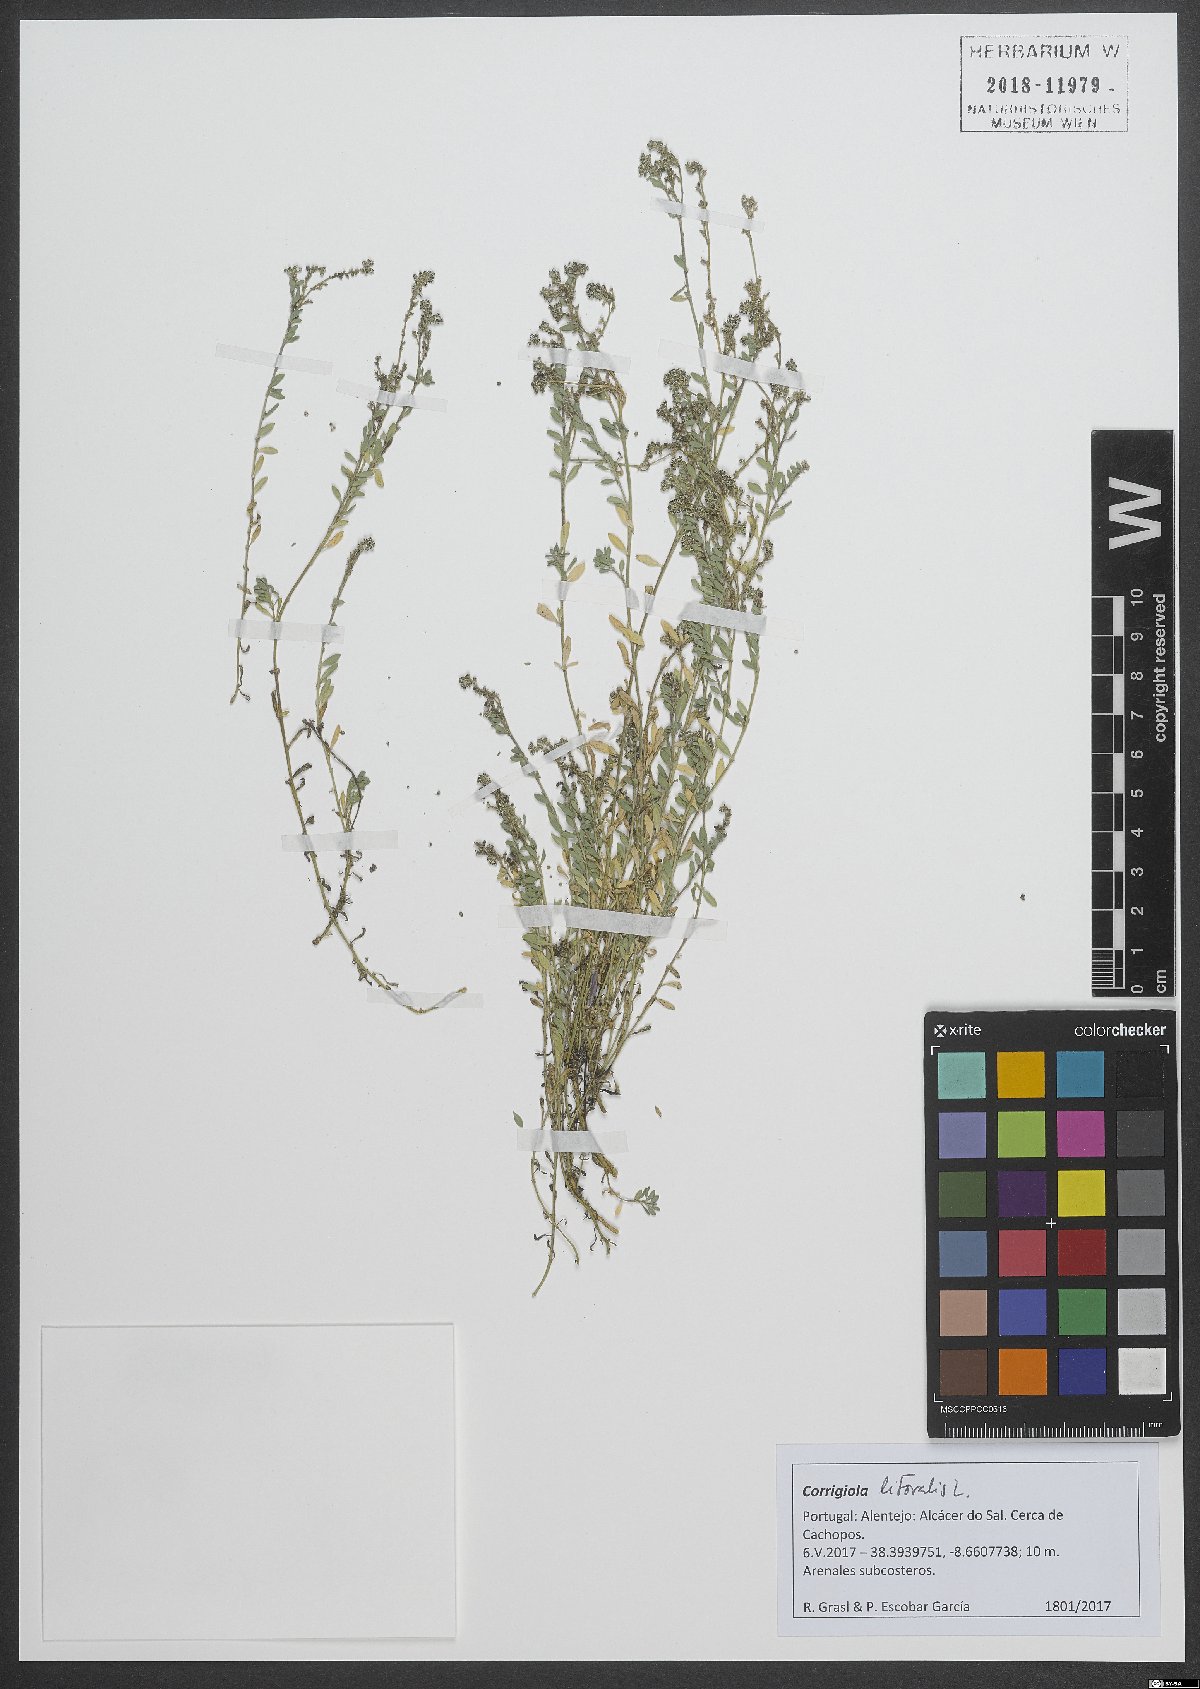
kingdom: Plantae
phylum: Tracheophyta
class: Magnoliopsida
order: Caryophyllales
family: Caryophyllaceae
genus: Corrigiola
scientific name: Corrigiola litoralis
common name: Strapwort
